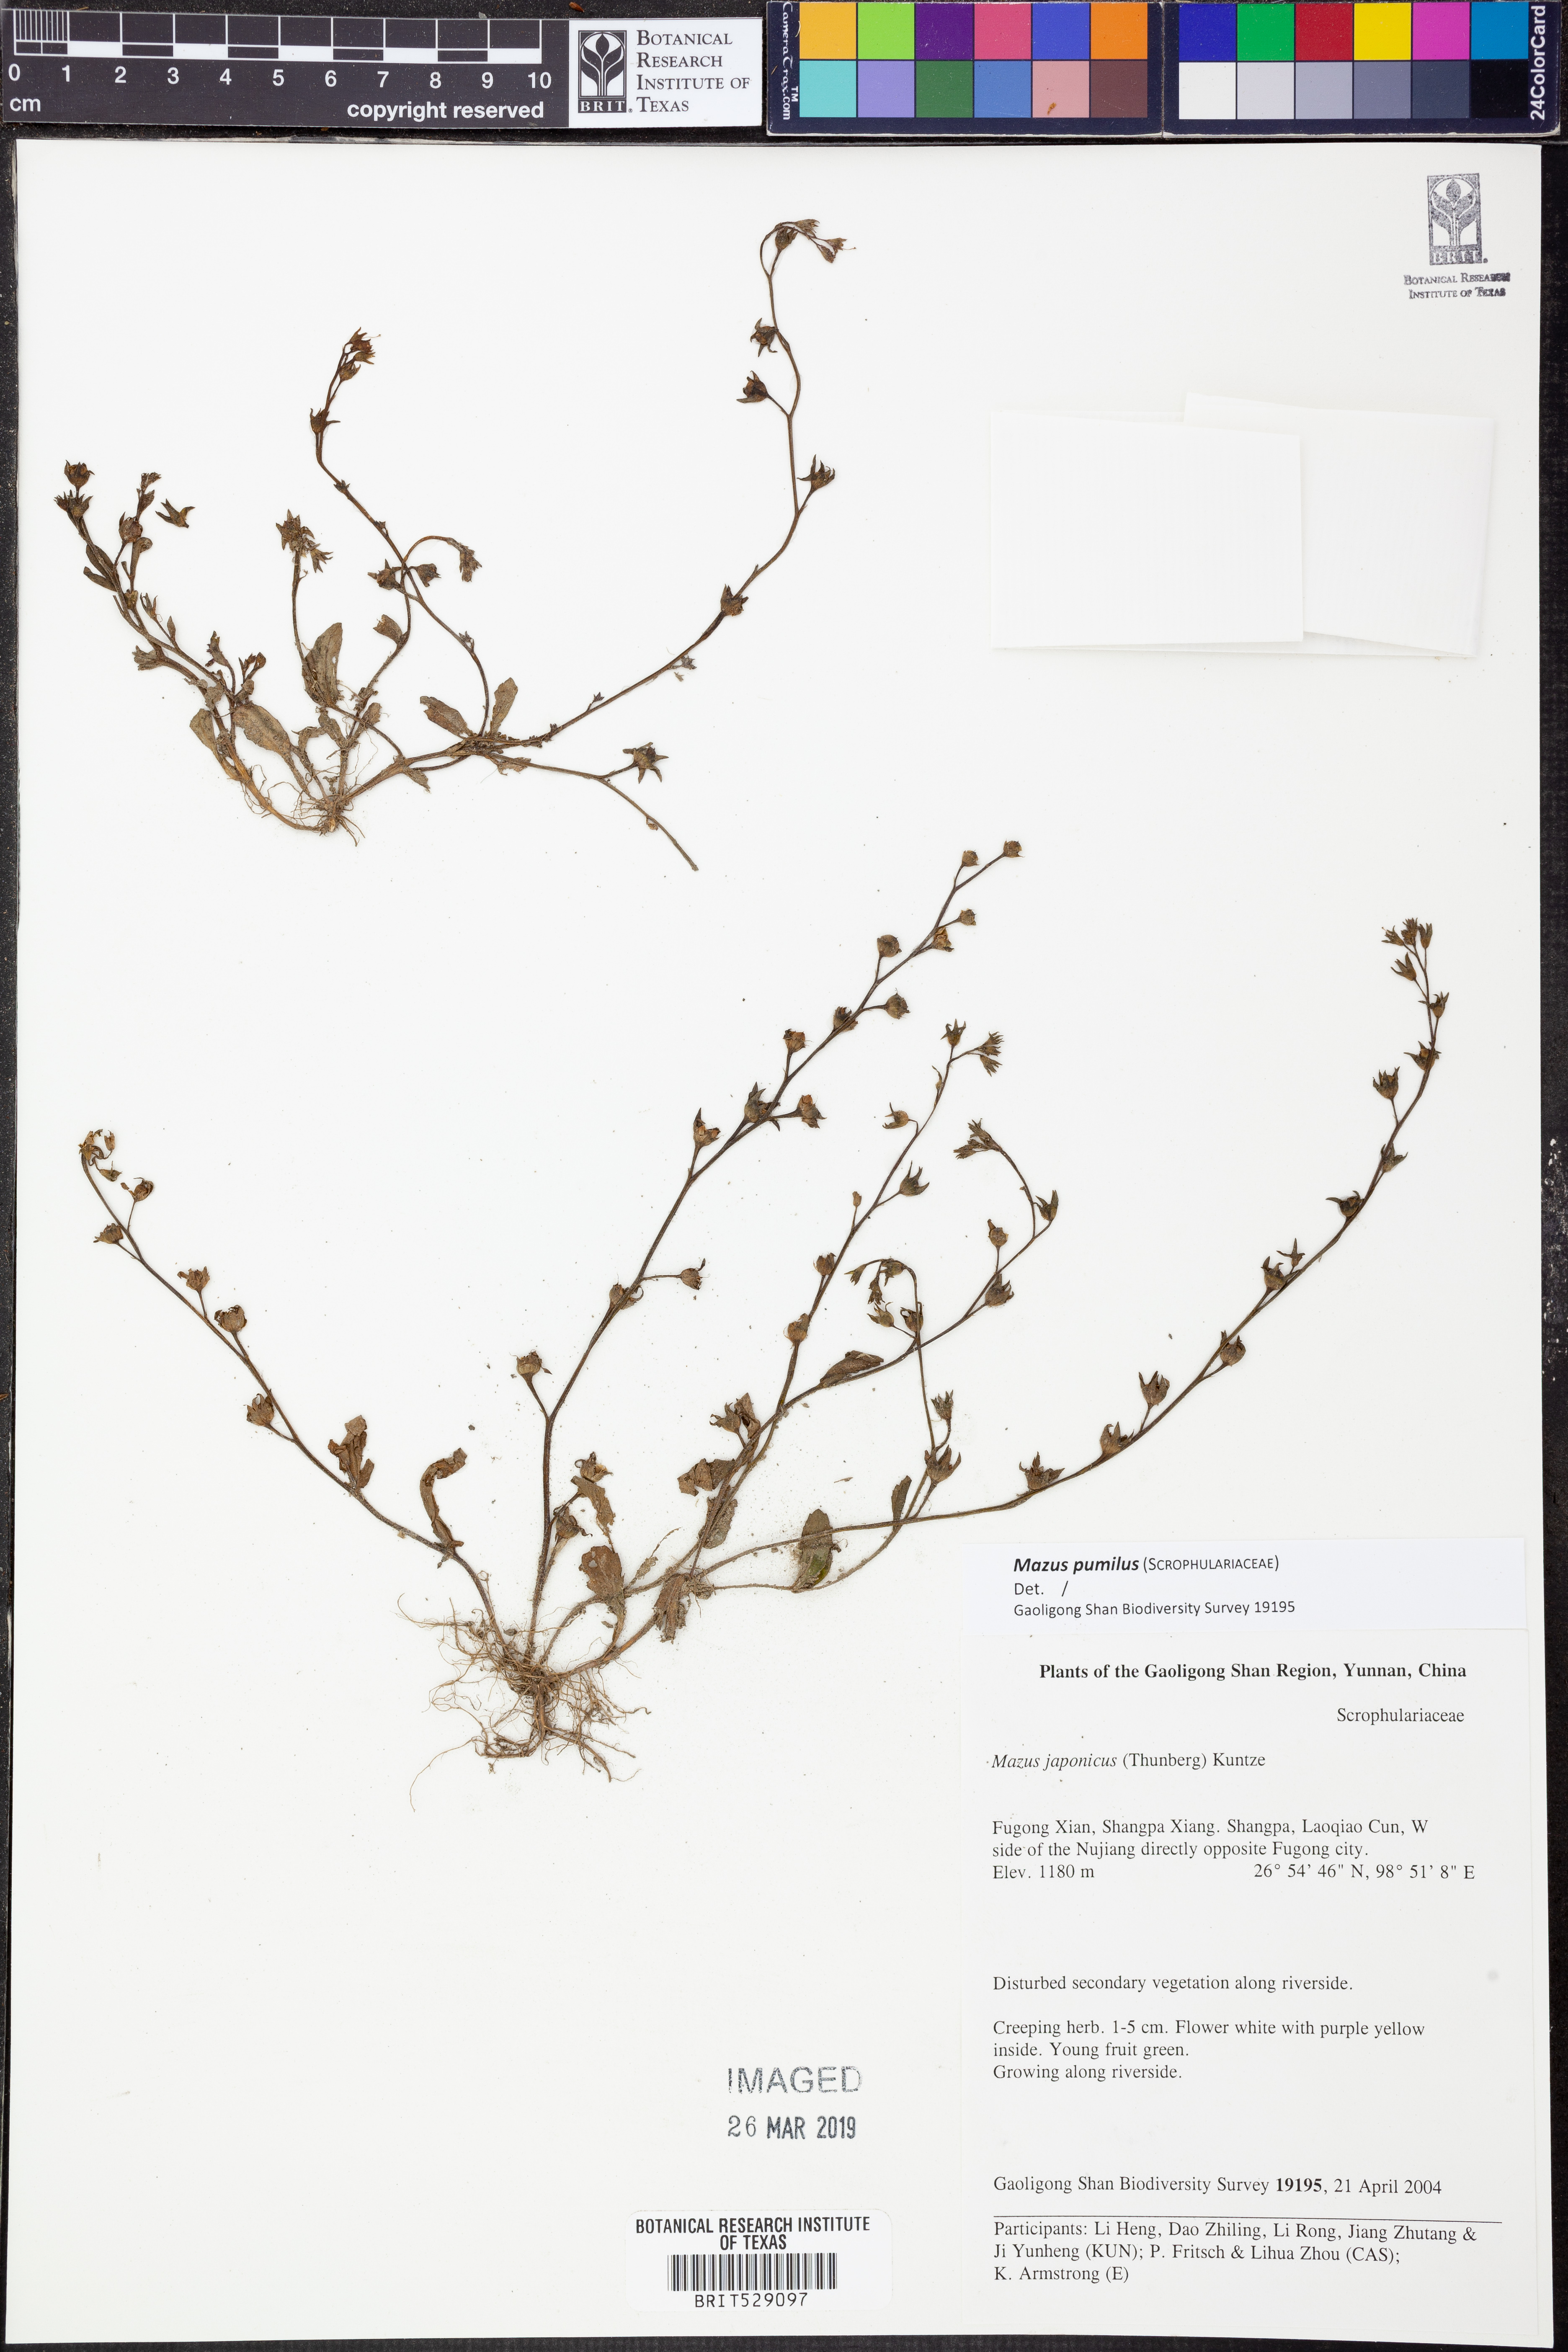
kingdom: Plantae
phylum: Tracheophyta
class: Magnoliopsida
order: Lamiales
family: Mazaceae
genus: Mazus
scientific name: Mazus pumilus
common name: Japanese mazus
